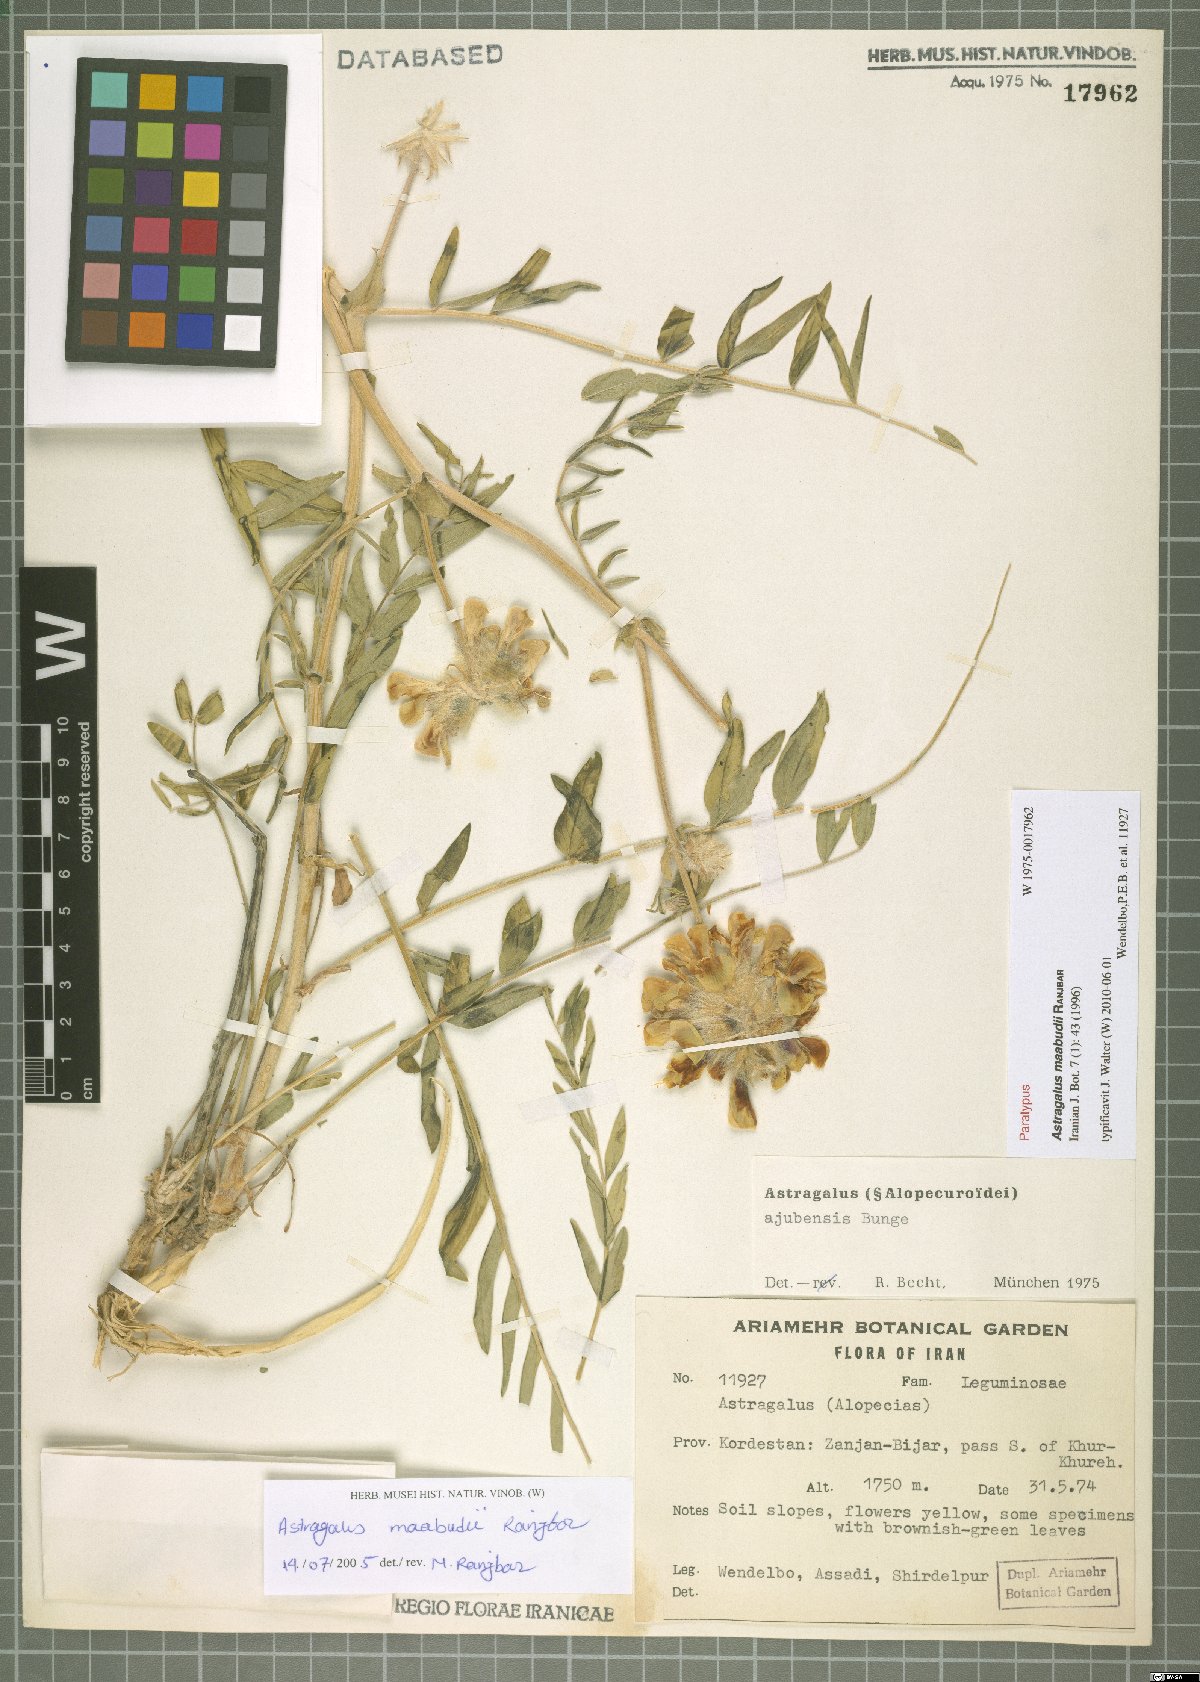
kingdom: Plantae
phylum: Tracheophyta
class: Magnoliopsida
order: Fabales
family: Fabaceae
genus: Astragalus
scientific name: Astragalus maabudii
